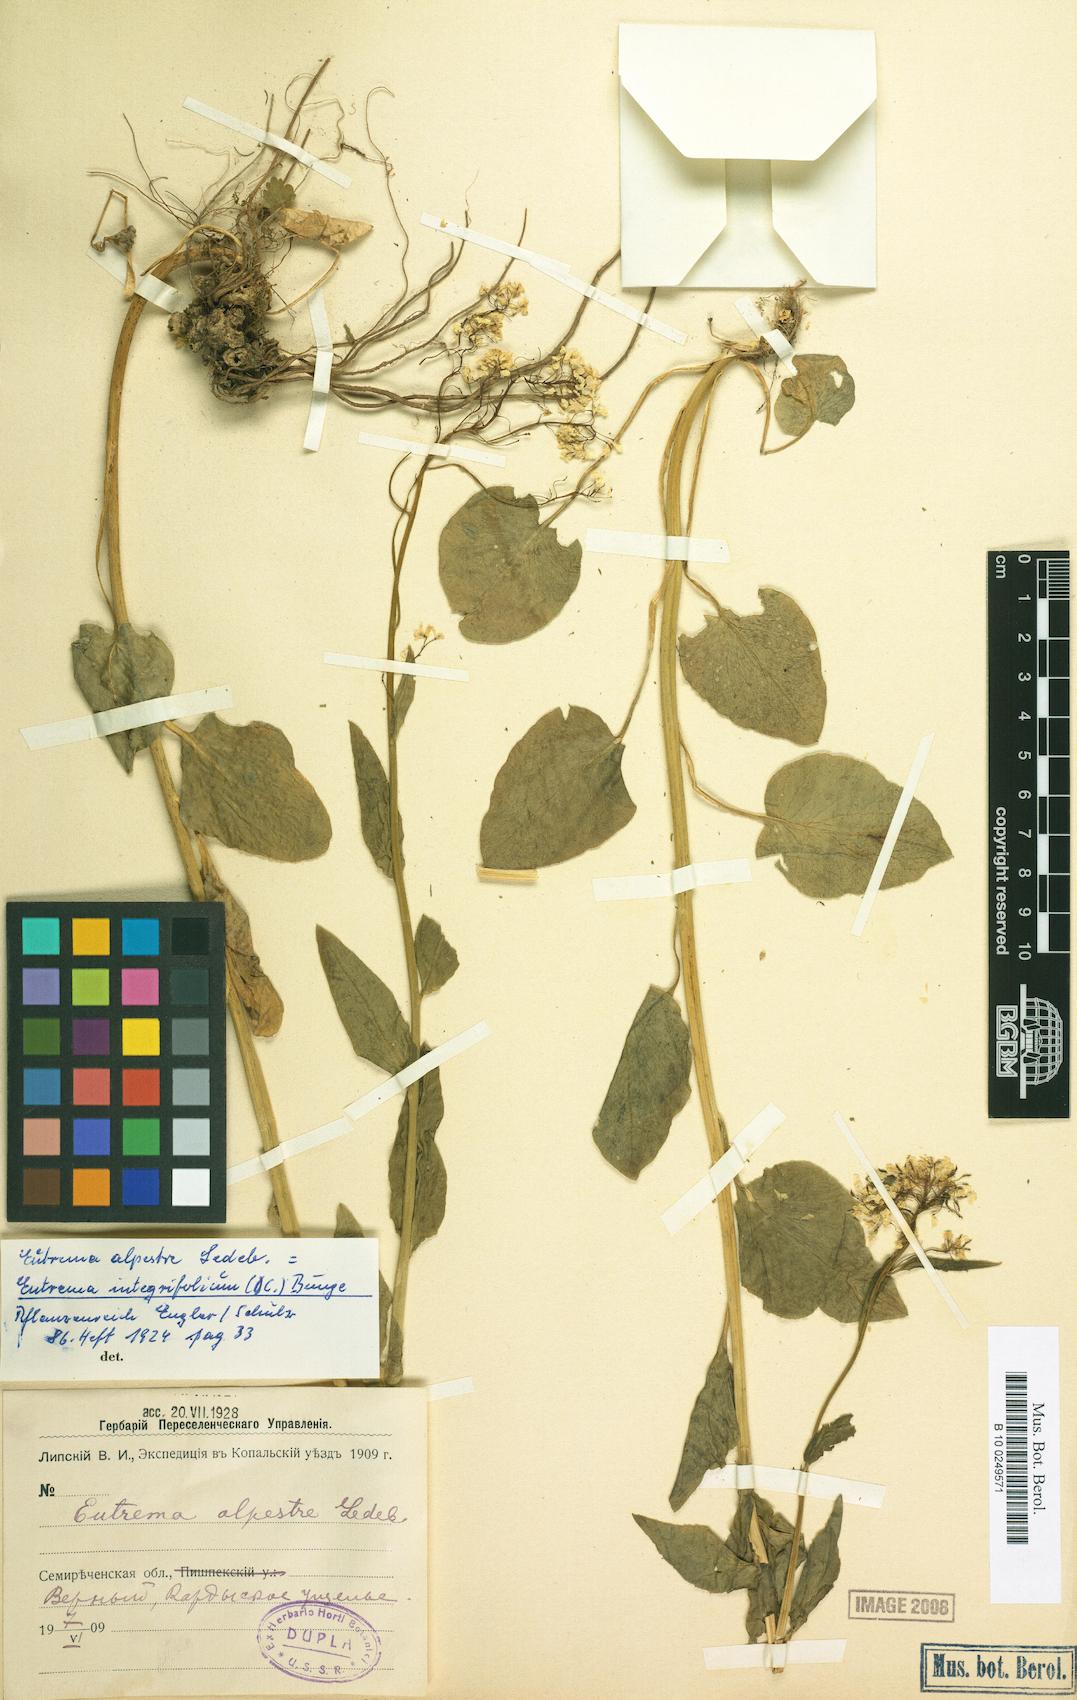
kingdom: Plantae
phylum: Tracheophyta
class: Magnoliopsida
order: Brassicales
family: Brassicaceae
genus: Eutrema
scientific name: Eutrema integrifolium
